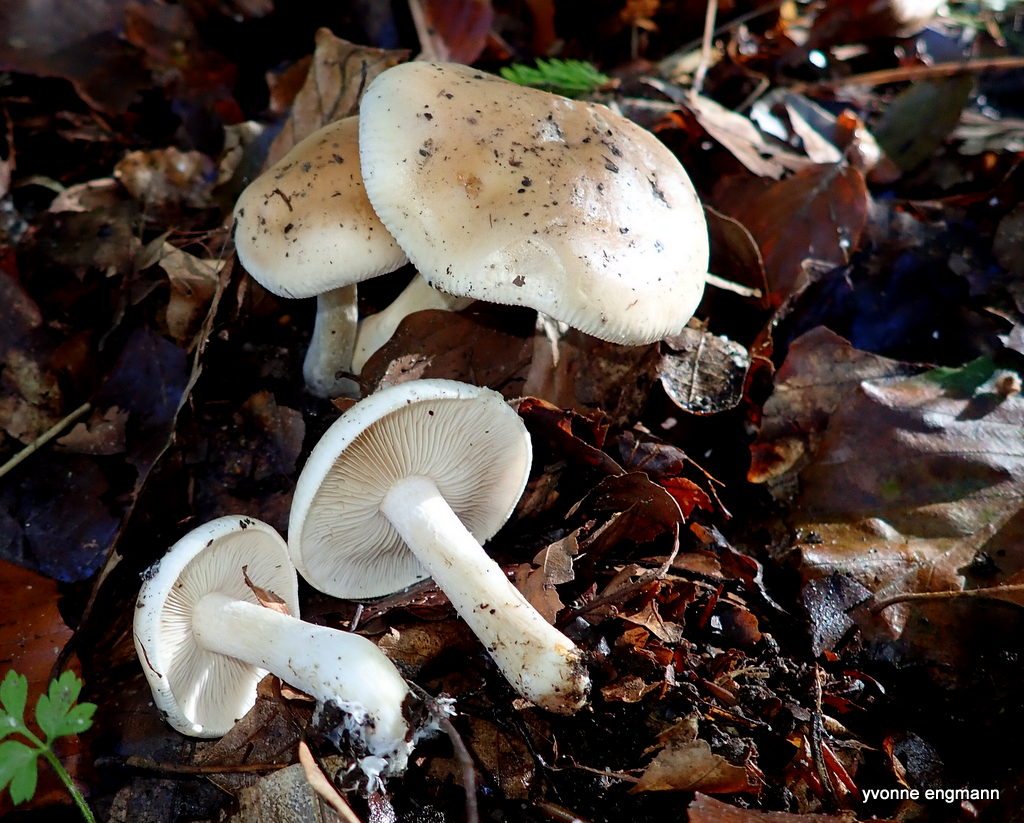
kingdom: Fungi
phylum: Basidiomycota
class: Agaricomycetes
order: Agaricales
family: Hymenogastraceae
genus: Hebeloma
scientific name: Hebeloma
